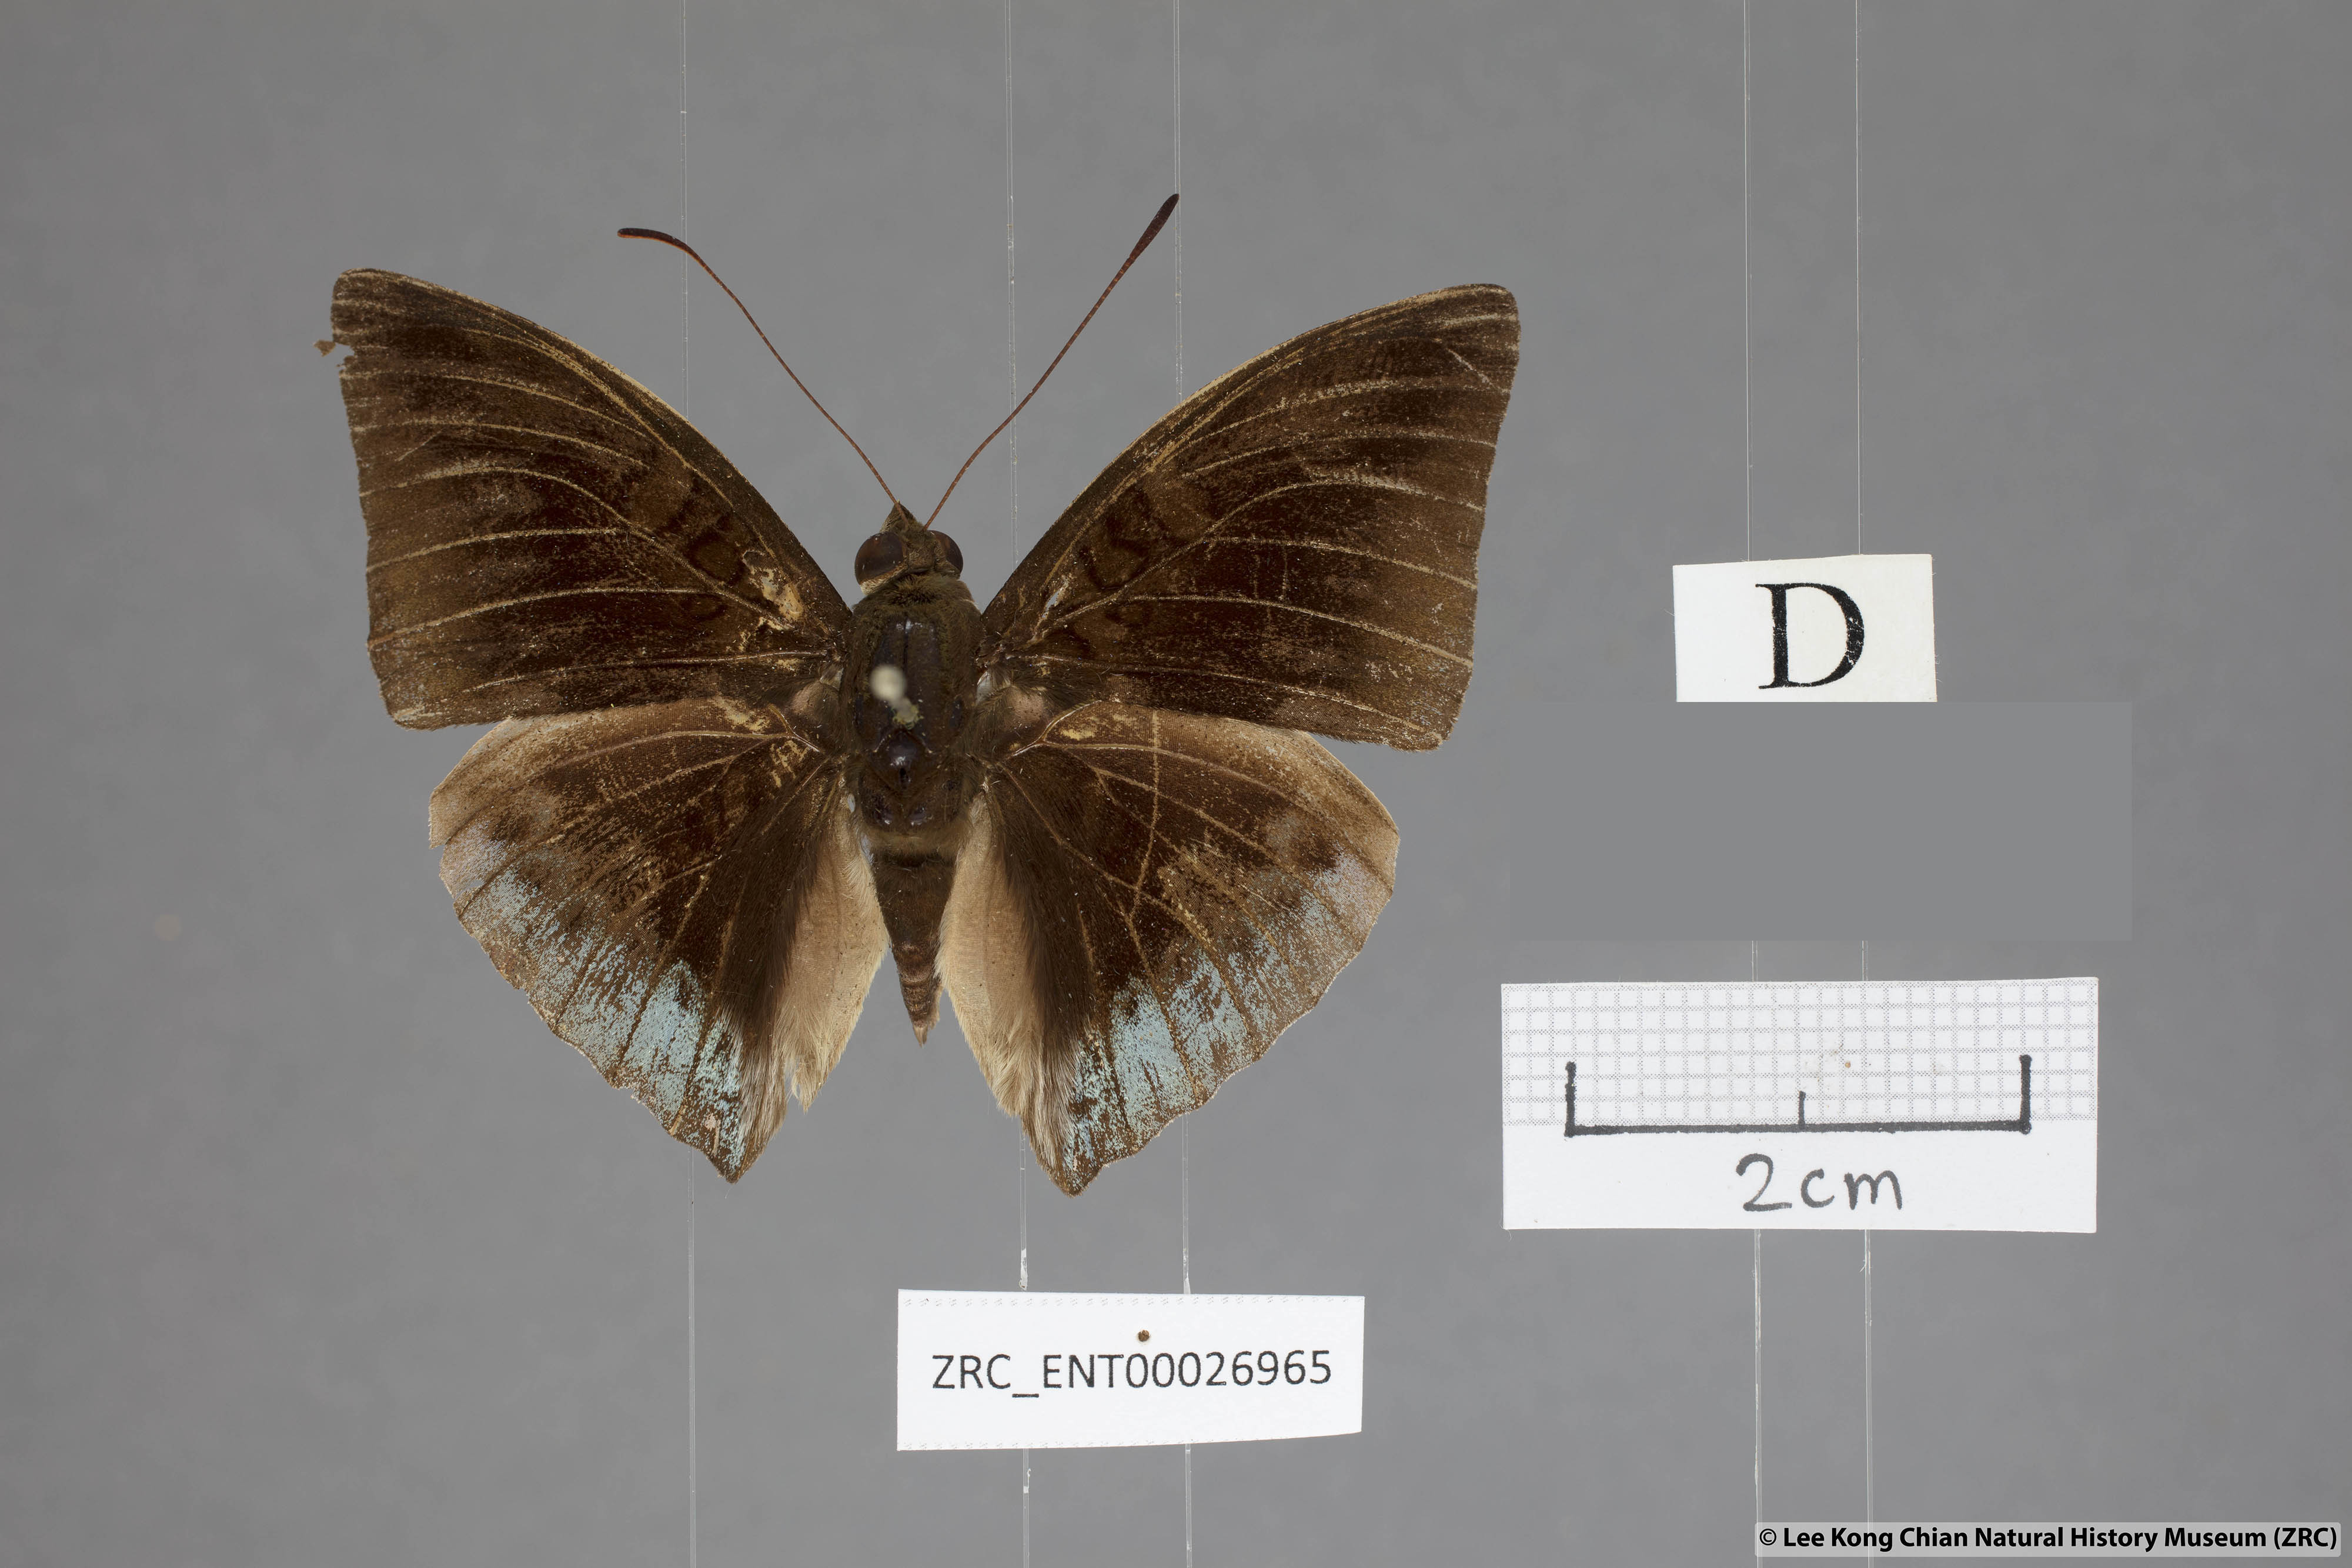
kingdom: Animalia
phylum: Arthropoda
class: Insecta
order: Lepidoptera
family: Nymphalidae
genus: Euthalia
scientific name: Euthalia mahadeva
